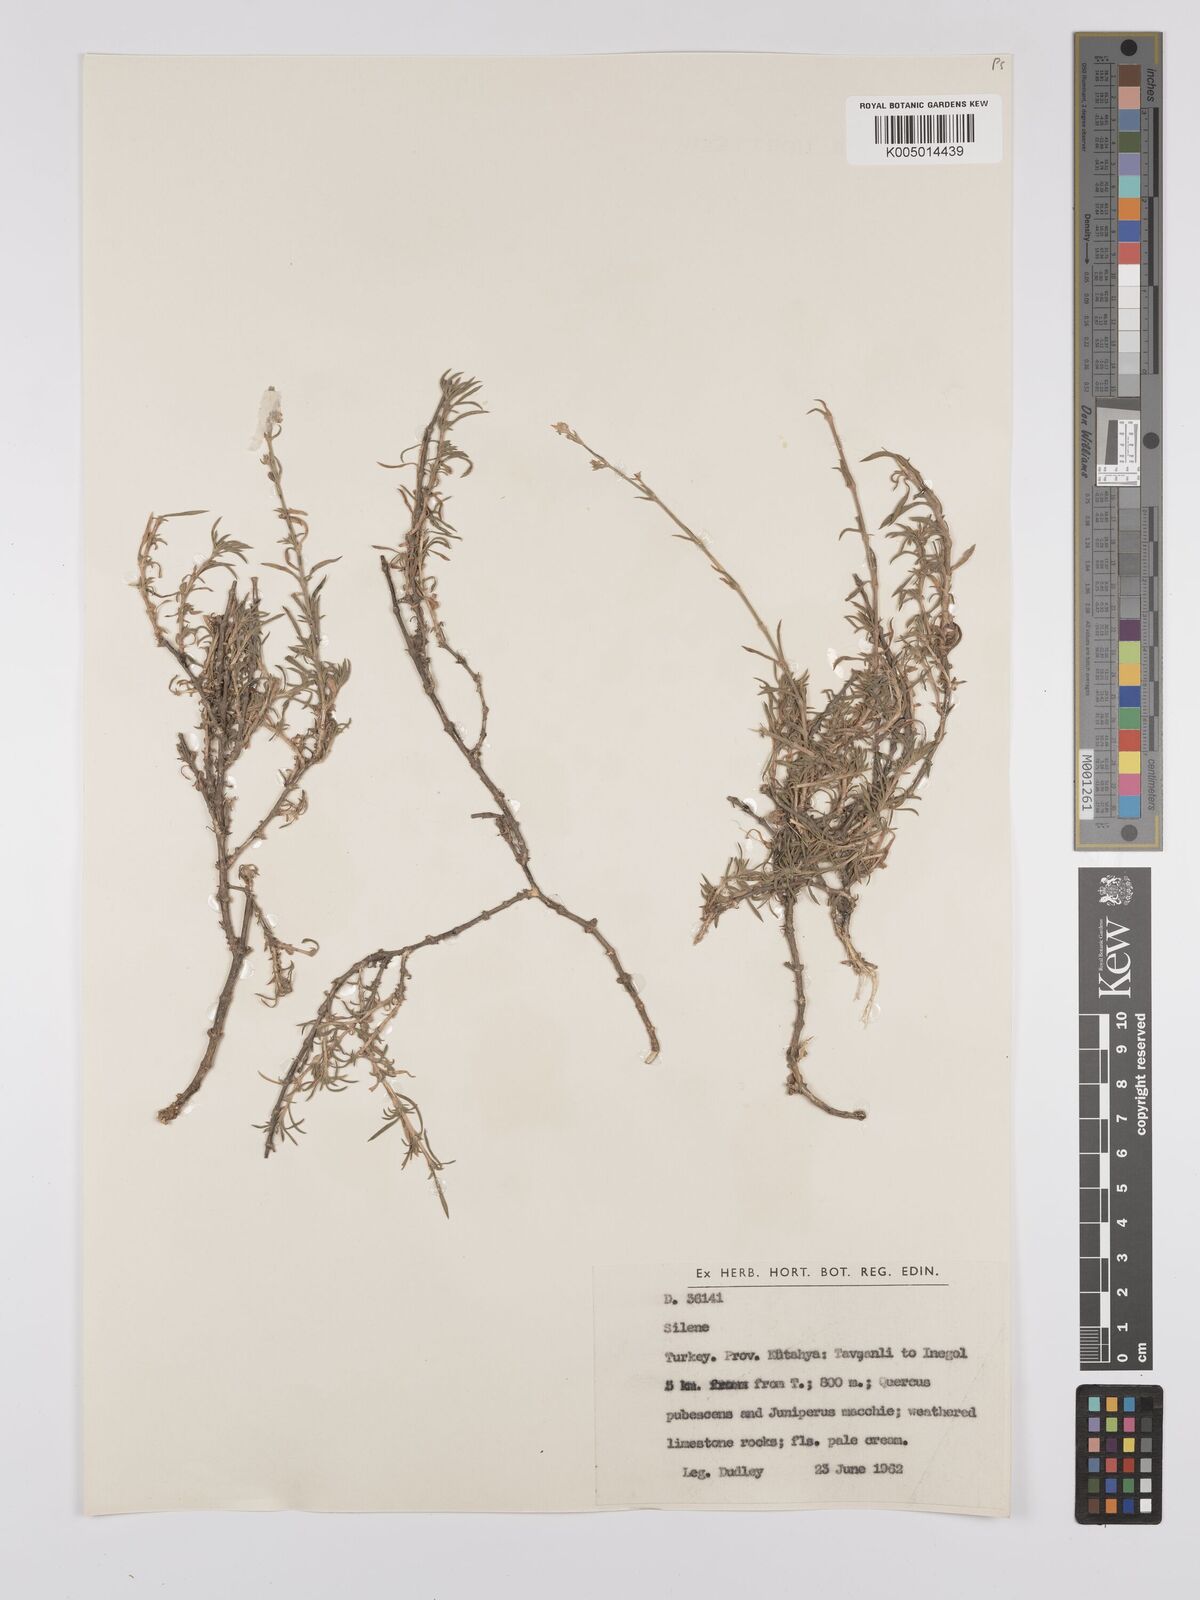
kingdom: Plantae
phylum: Tracheophyta
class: Magnoliopsida
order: Caryophyllales
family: Caryophyllaceae
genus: Silene
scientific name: Silene
